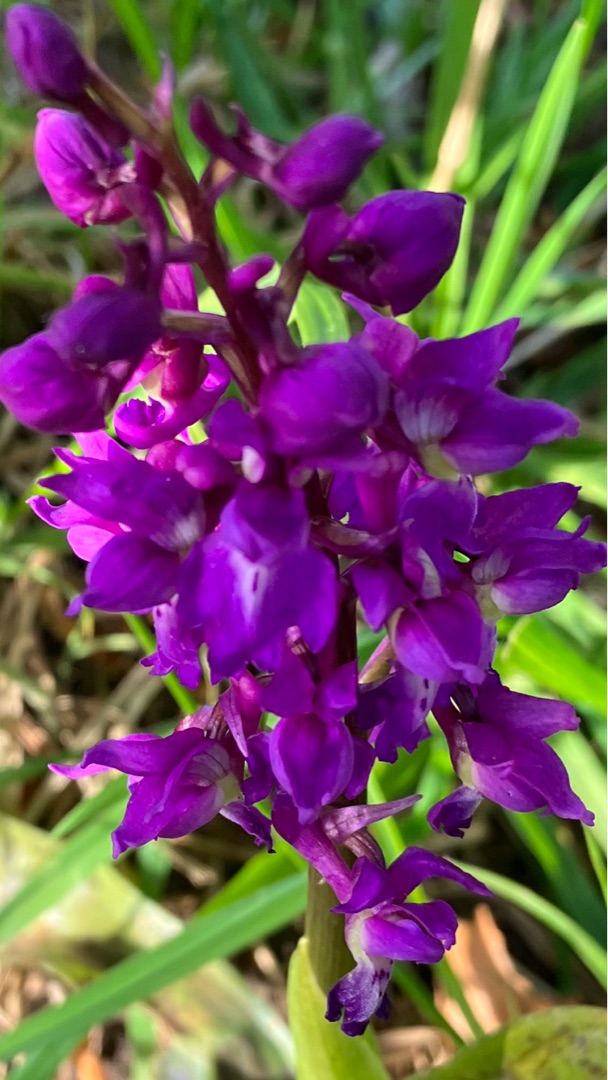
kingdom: Plantae
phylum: Tracheophyta
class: Liliopsida
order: Asparagales
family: Orchidaceae
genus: Orchis
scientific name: Orchis mascula
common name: Tyndakset gøgeurt
